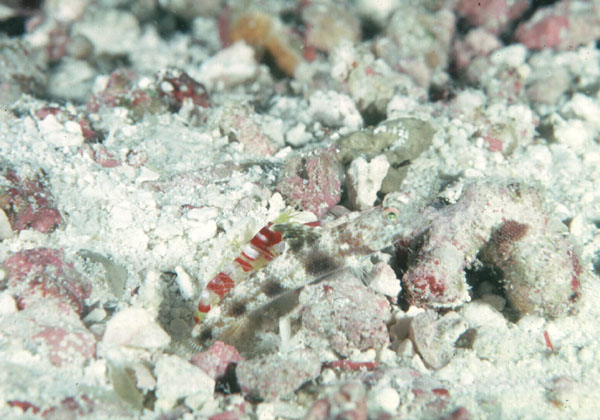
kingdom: Animalia
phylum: Chordata
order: Perciformes
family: Gobiidae
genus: Psilogobius
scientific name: Psilogobius randalli
